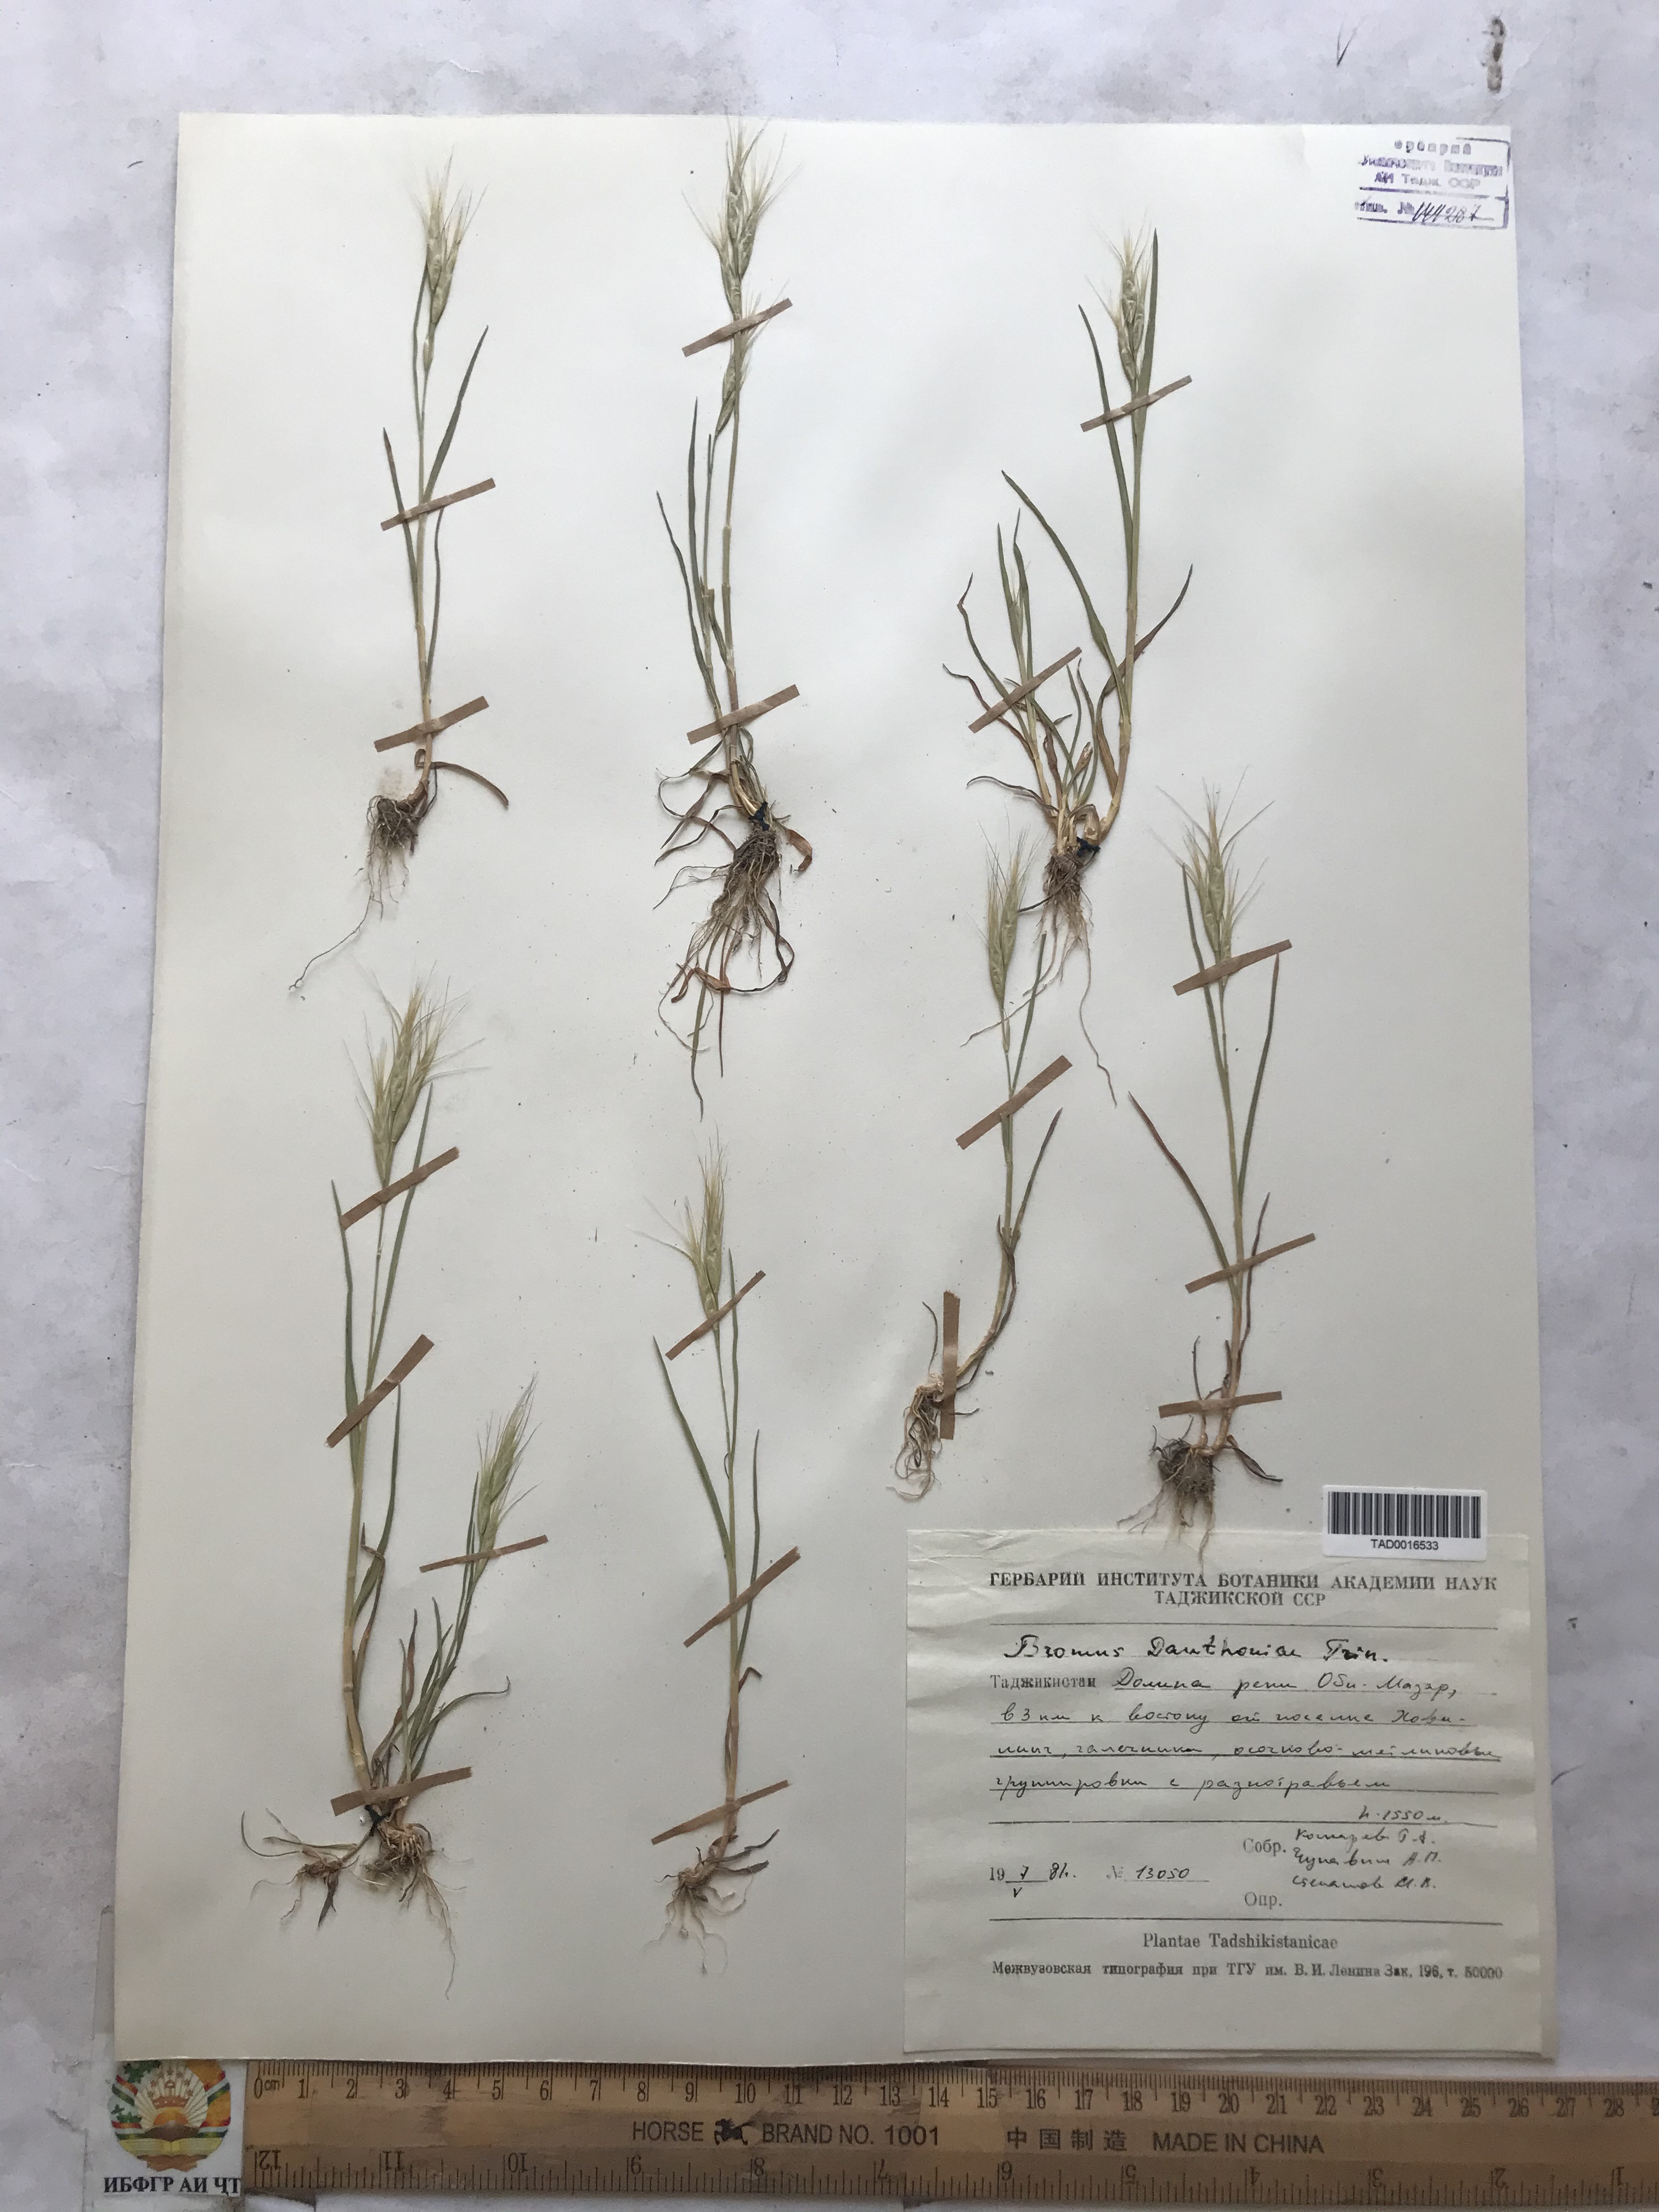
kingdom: Plantae
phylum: Tracheophyta
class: Liliopsida
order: Poales
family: Poaceae
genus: Bromus
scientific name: Bromus danthoniae
